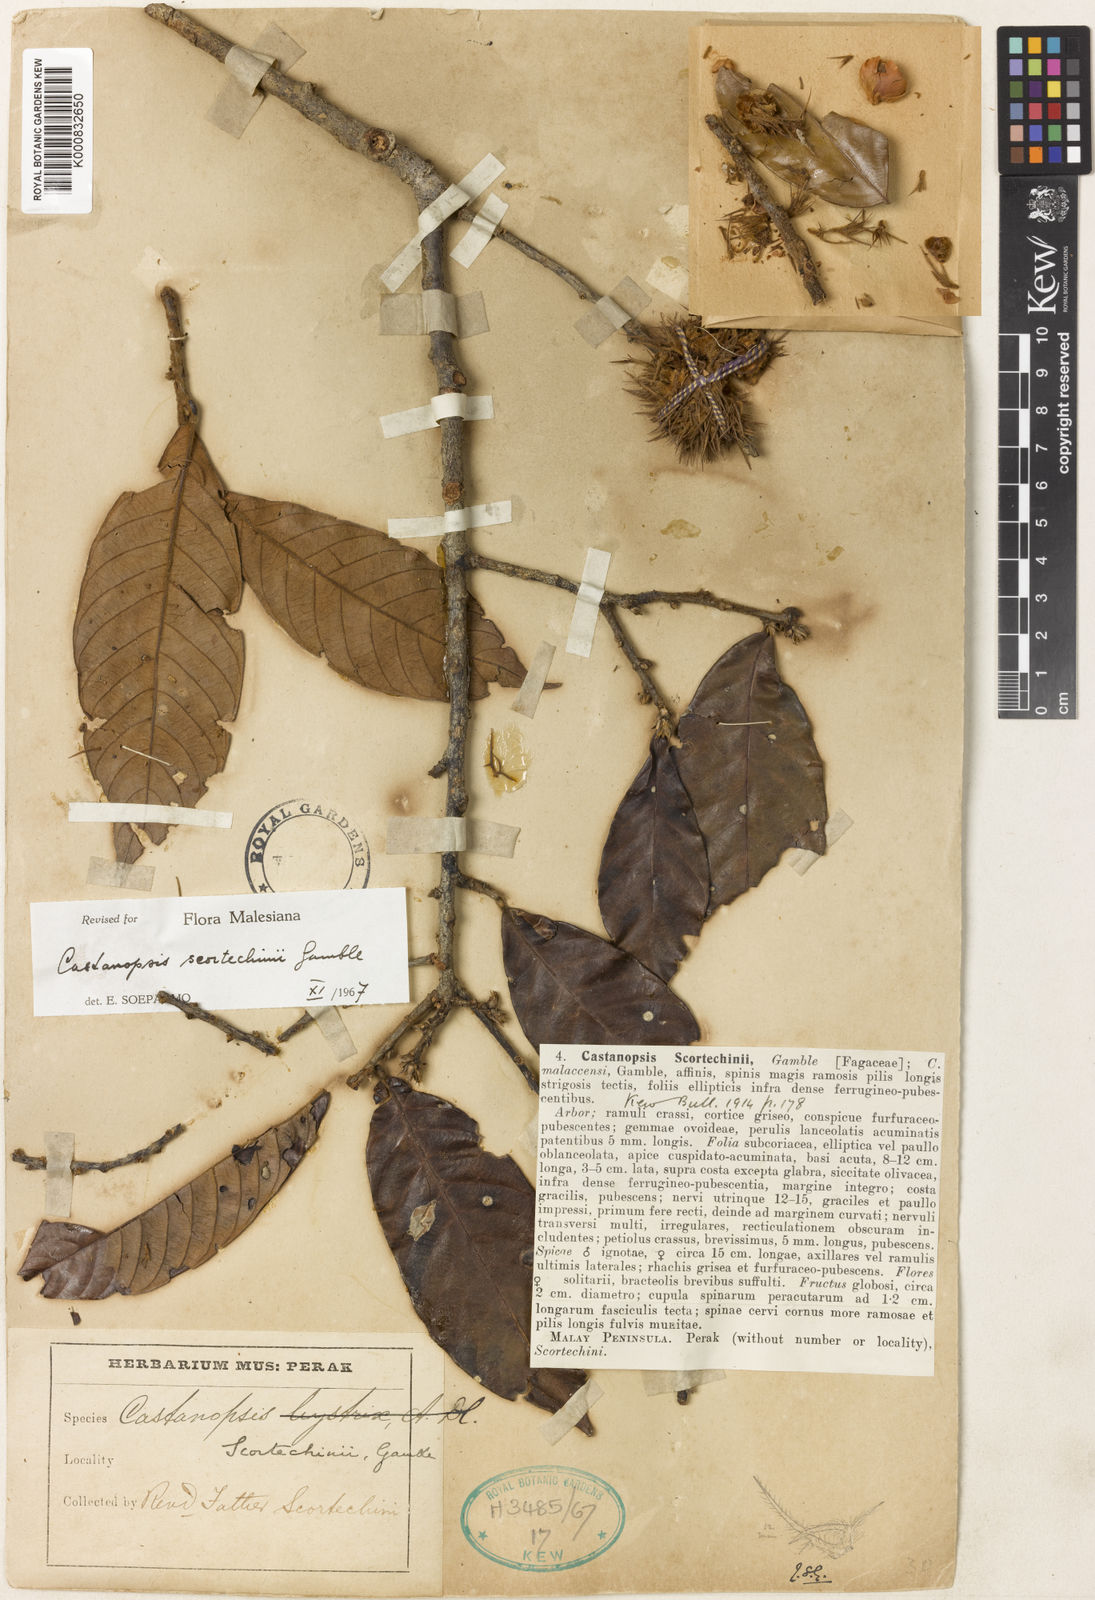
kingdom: Plantae
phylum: Tracheophyta
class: Magnoliopsida
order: Fagales
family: Fagaceae
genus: Castanopsis
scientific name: Castanopsis costata
